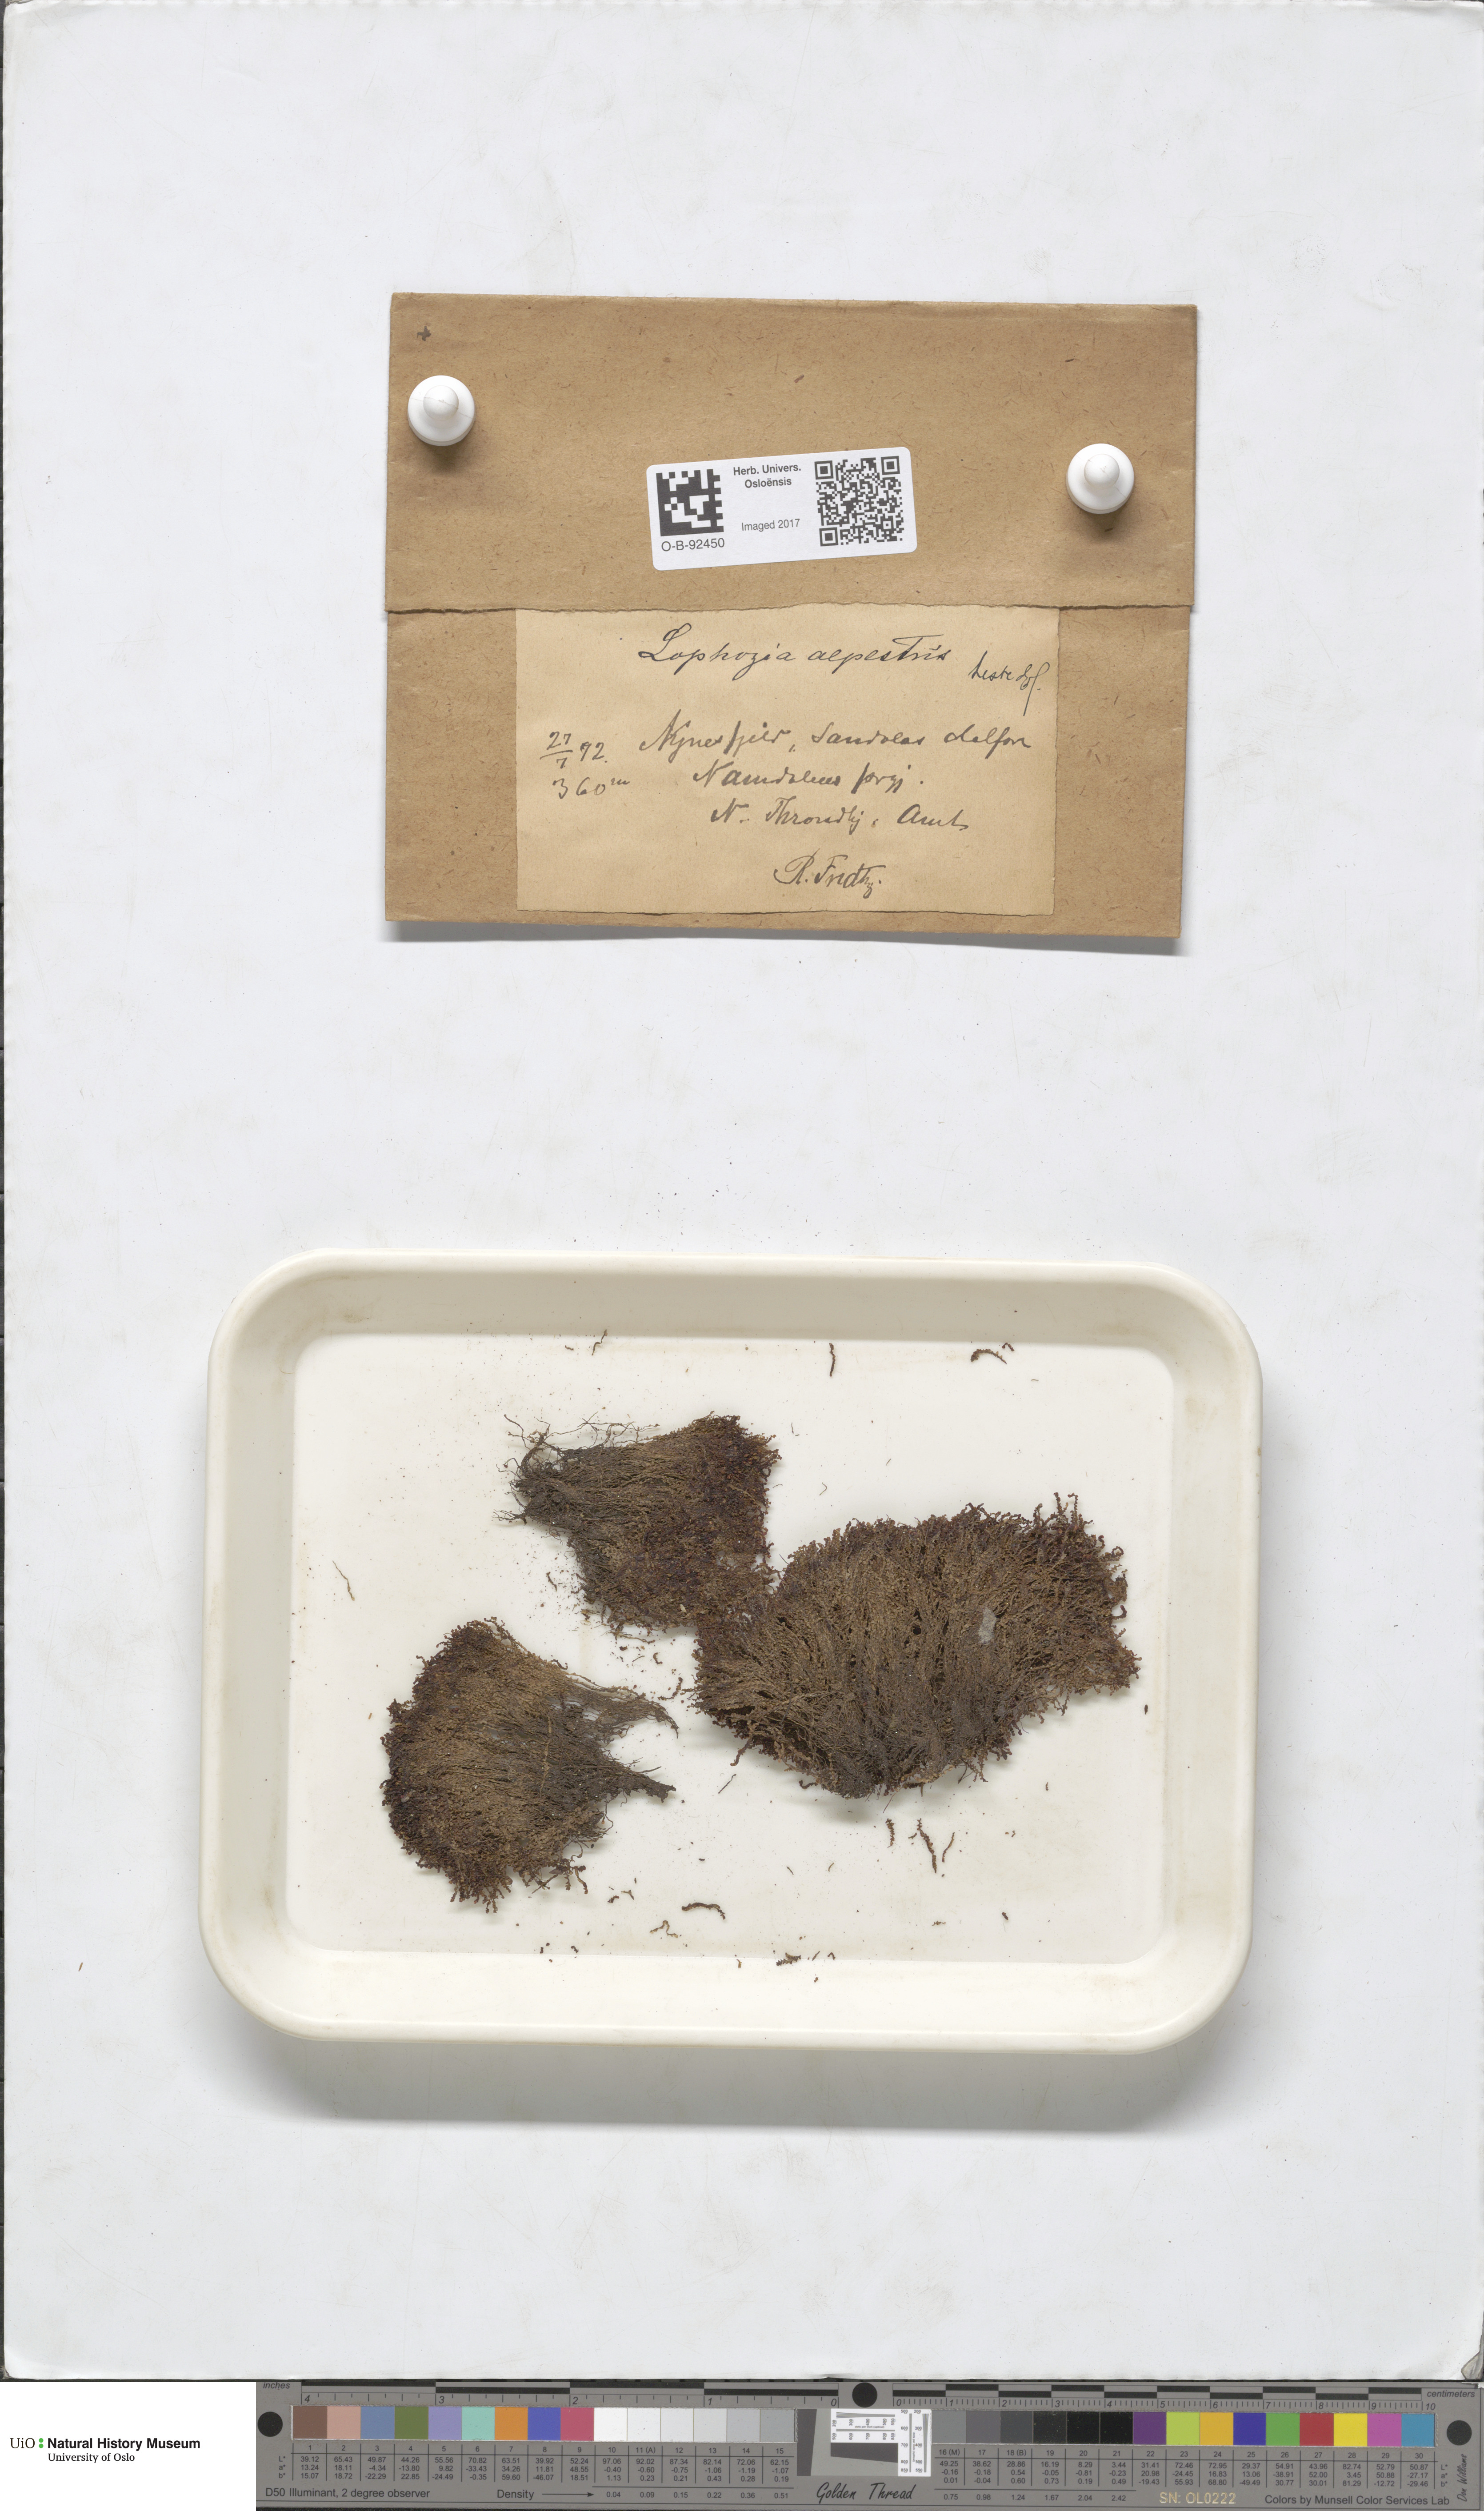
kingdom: Plantae
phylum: Marchantiophyta
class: Jungermanniopsida
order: Jungermanniales
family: Anastrophyllaceae
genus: Barbilophozia
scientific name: Barbilophozia sudetica
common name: Hill notchwort
